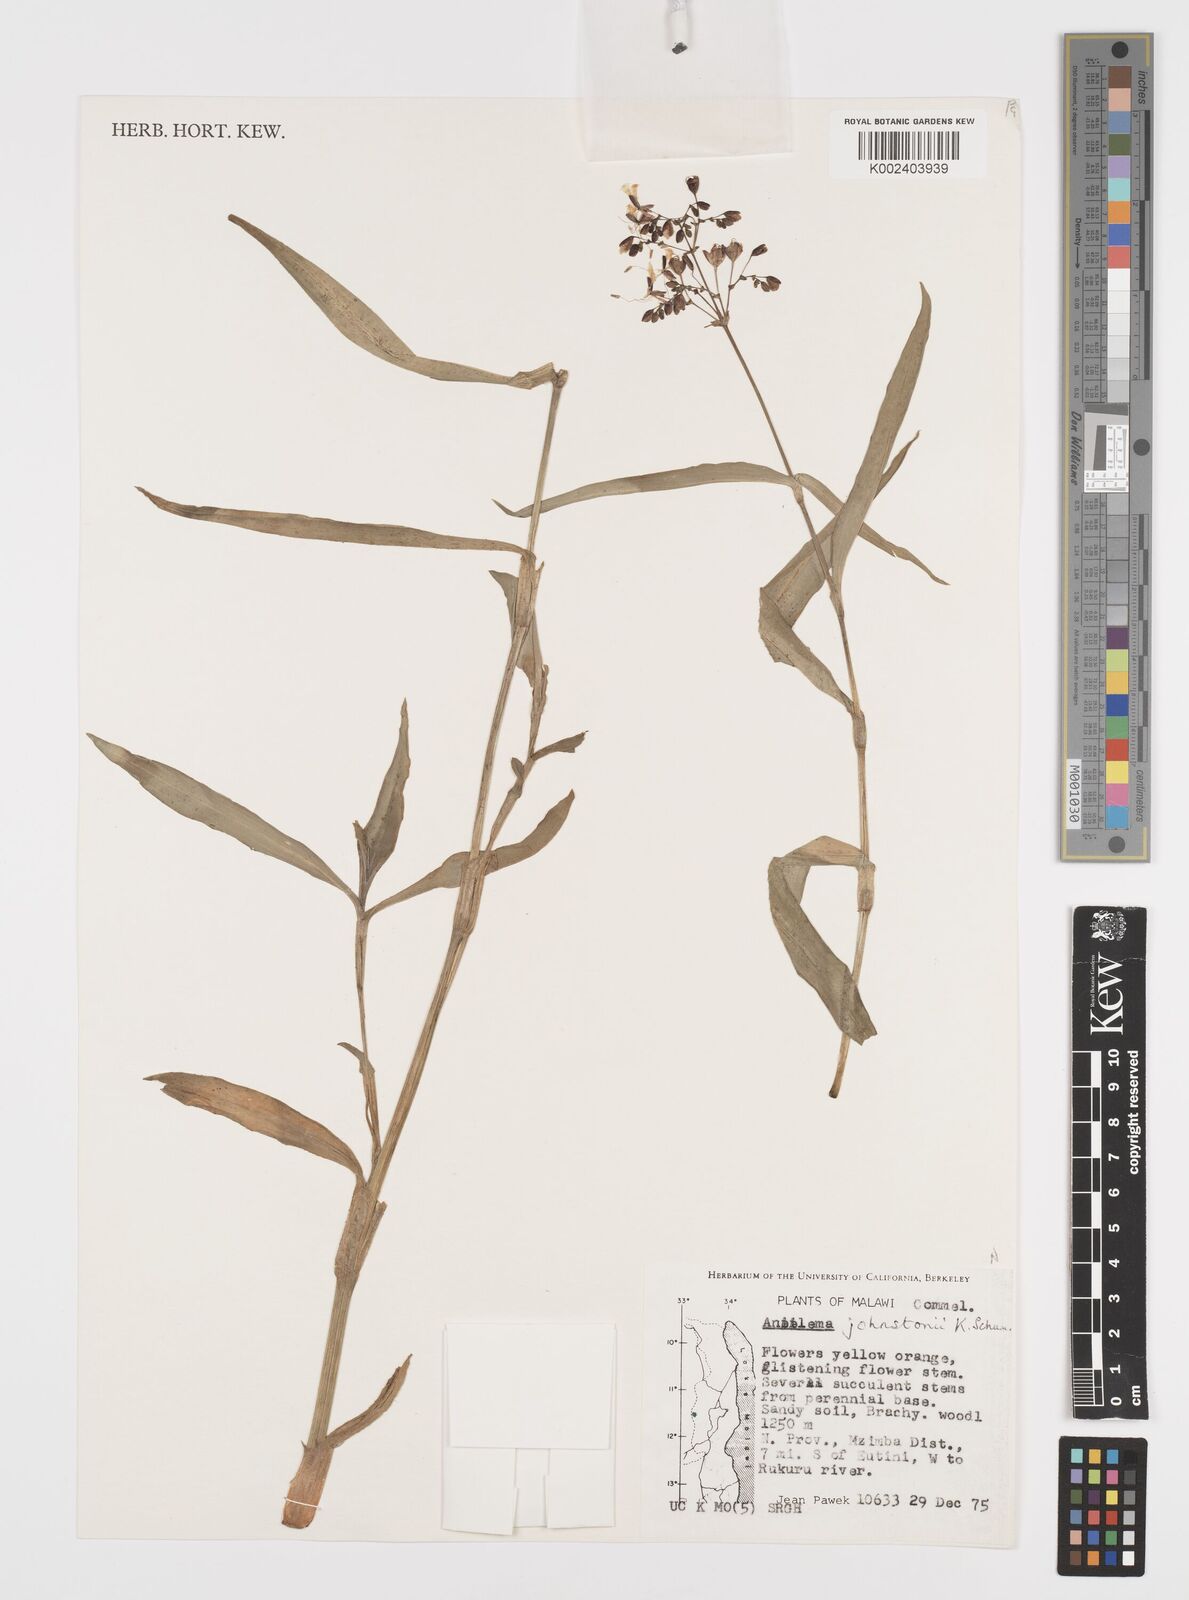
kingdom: Plantae
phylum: Tracheophyta
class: Liliopsida
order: Commelinales
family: Commelinaceae
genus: Aneilema
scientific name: Aneilema johnstonii
